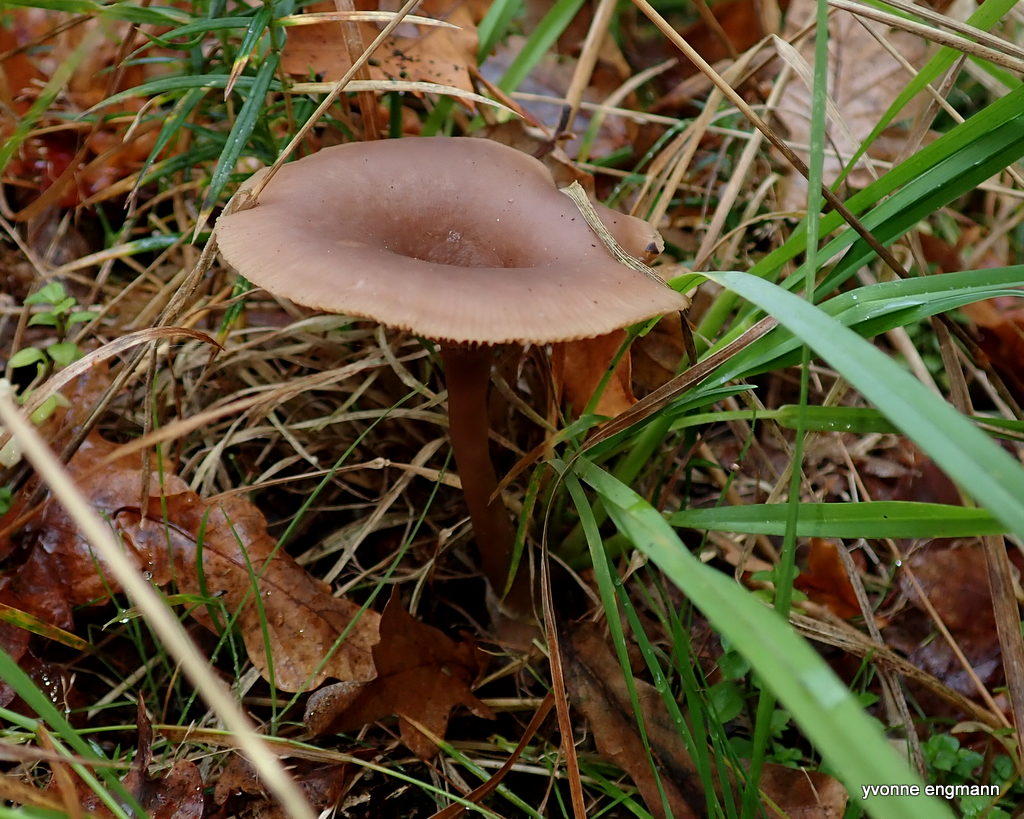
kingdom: Fungi
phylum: Basidiomycota
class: Agaricomycetes
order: Agaricales
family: Pseudoclitocybaceae
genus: Pseudoclitocybe
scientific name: Pseudoclitocybe cyathiformis
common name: almindelig bægertragthat
